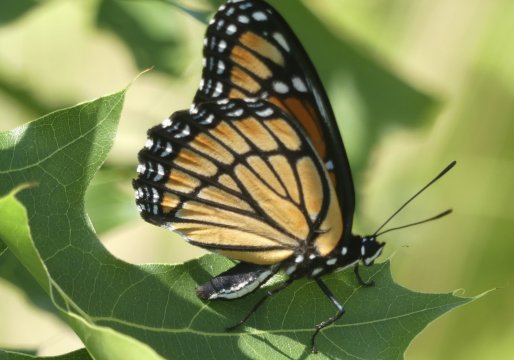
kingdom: Animalia
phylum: Arthropoda
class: Insecta
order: Lepidoptera
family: Nymphalidae
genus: Limenitis
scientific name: Limenitis archippus
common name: Viceroy
